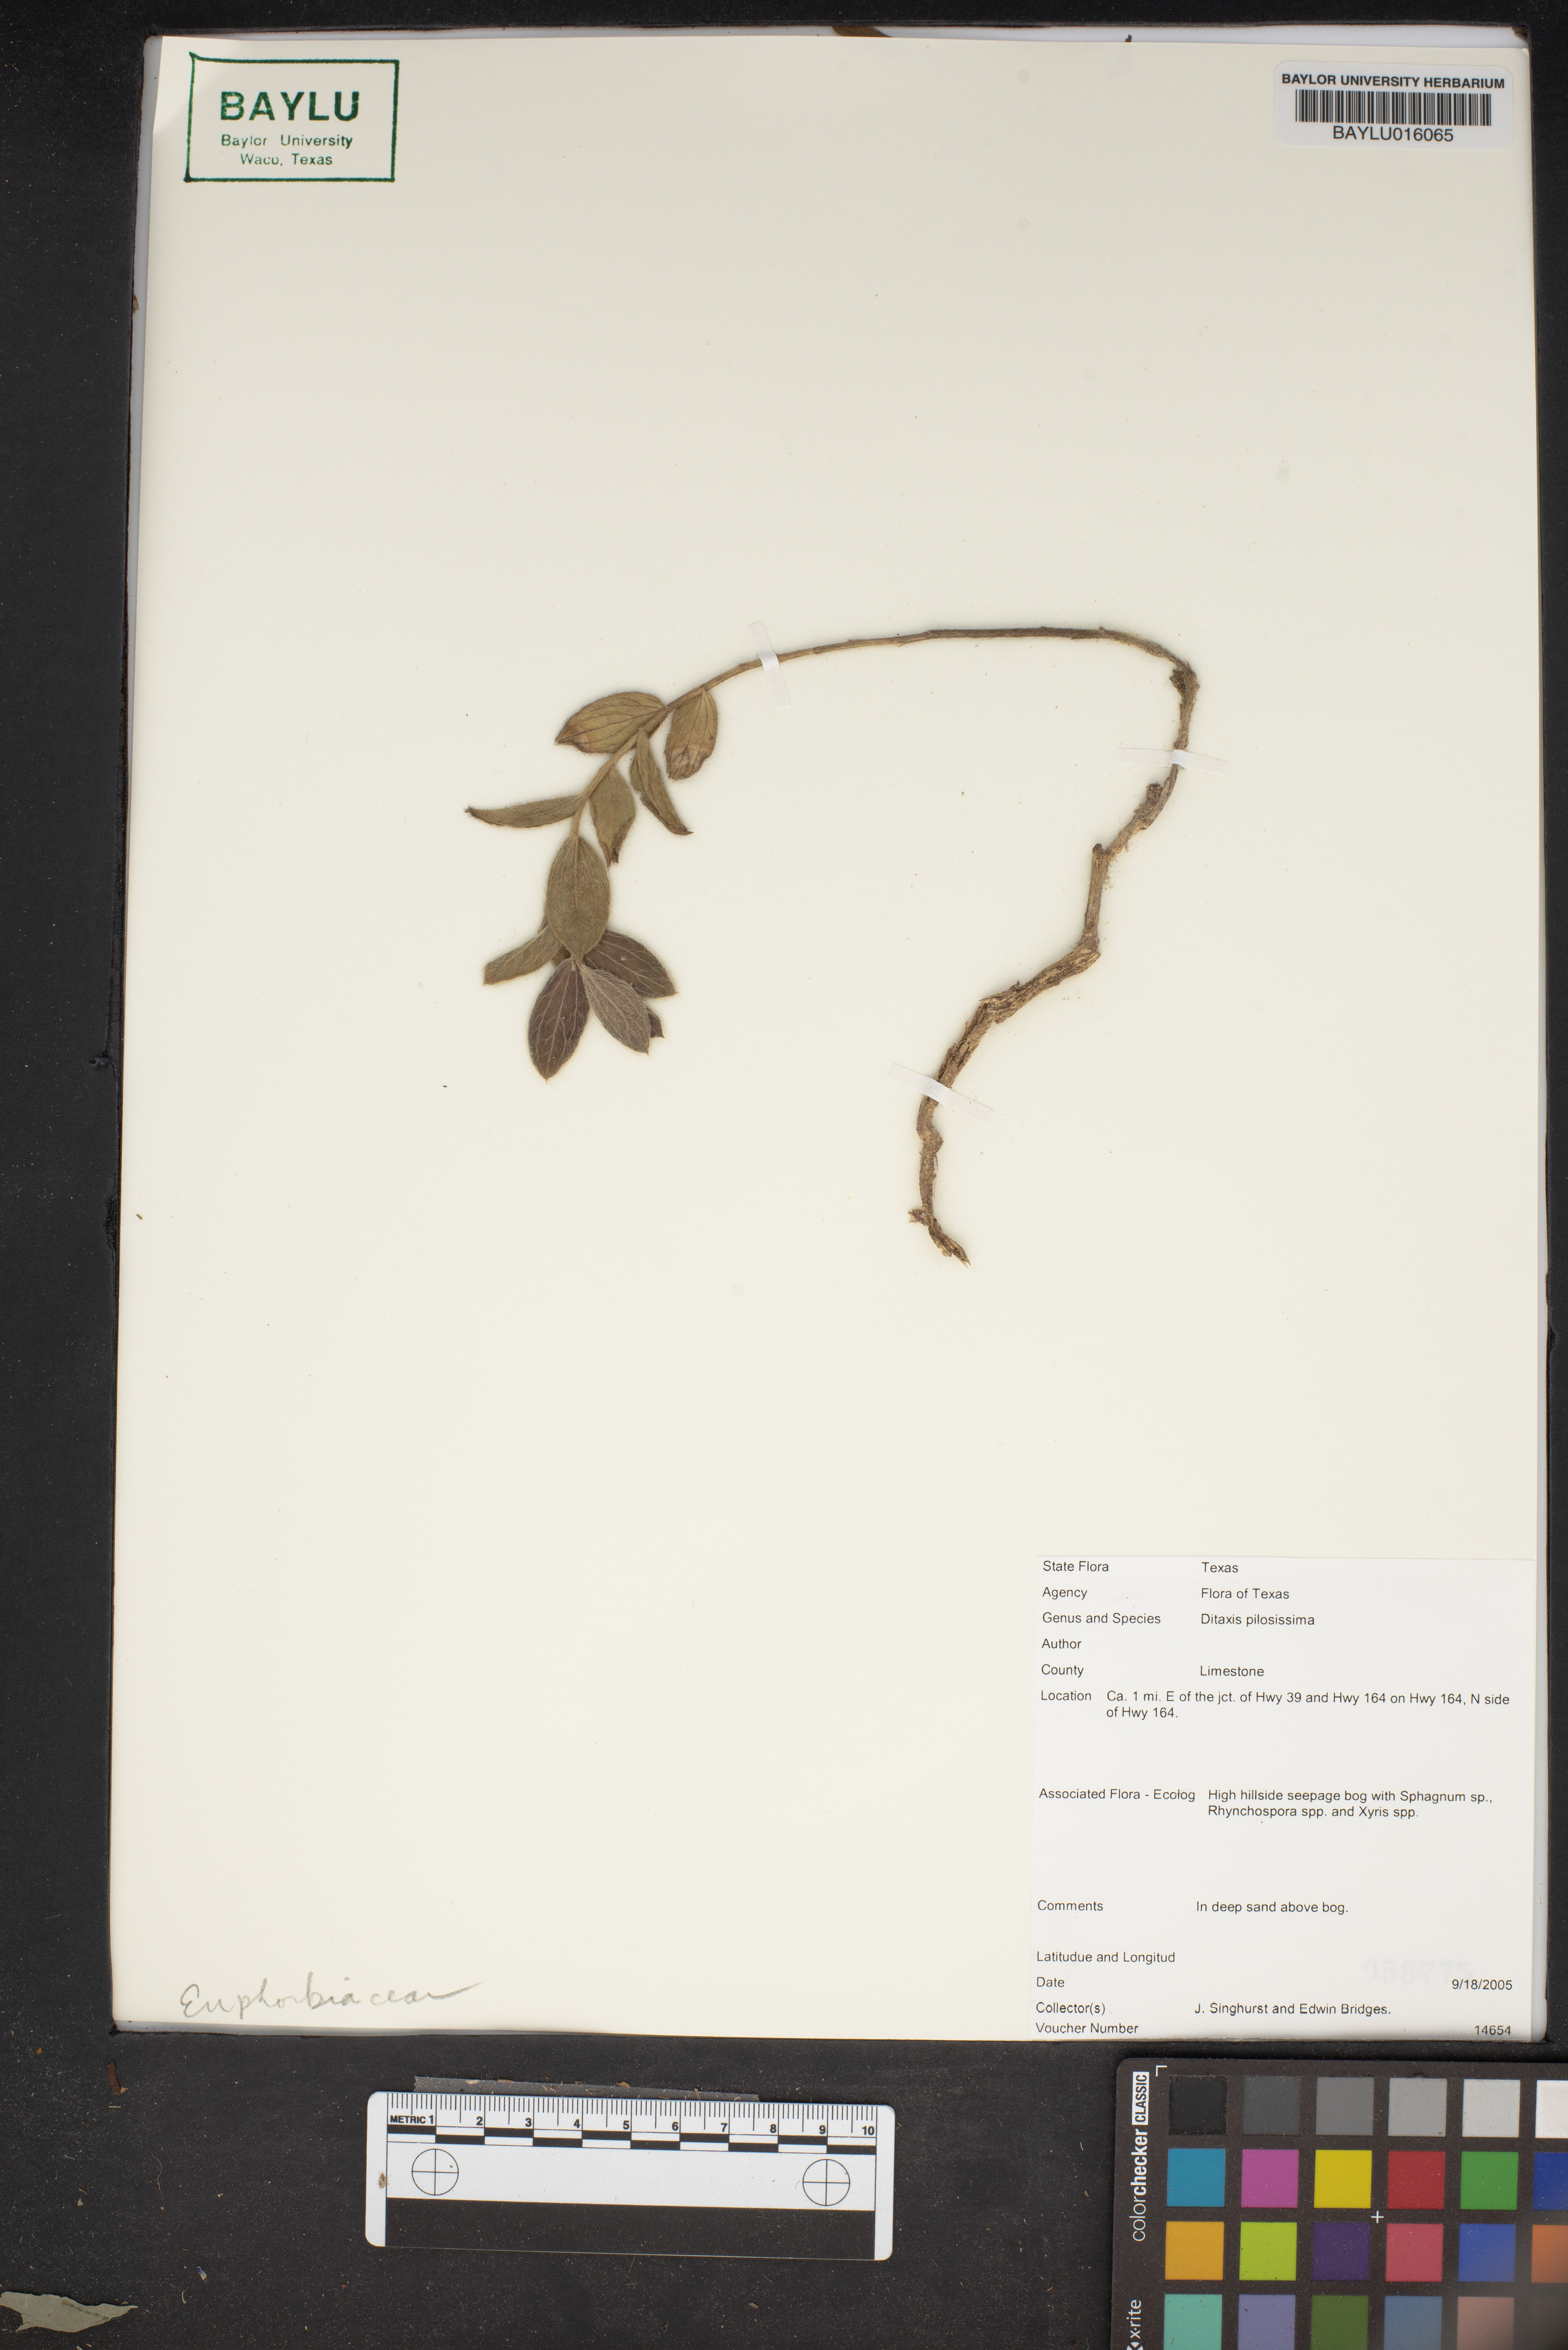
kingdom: Plantae
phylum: Tracheophyta
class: Magnoliopsida
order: Malpighiales
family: Euphorbiaceae
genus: Ditaxis
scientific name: Ditaxis pilosissima
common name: Tall silverbush
